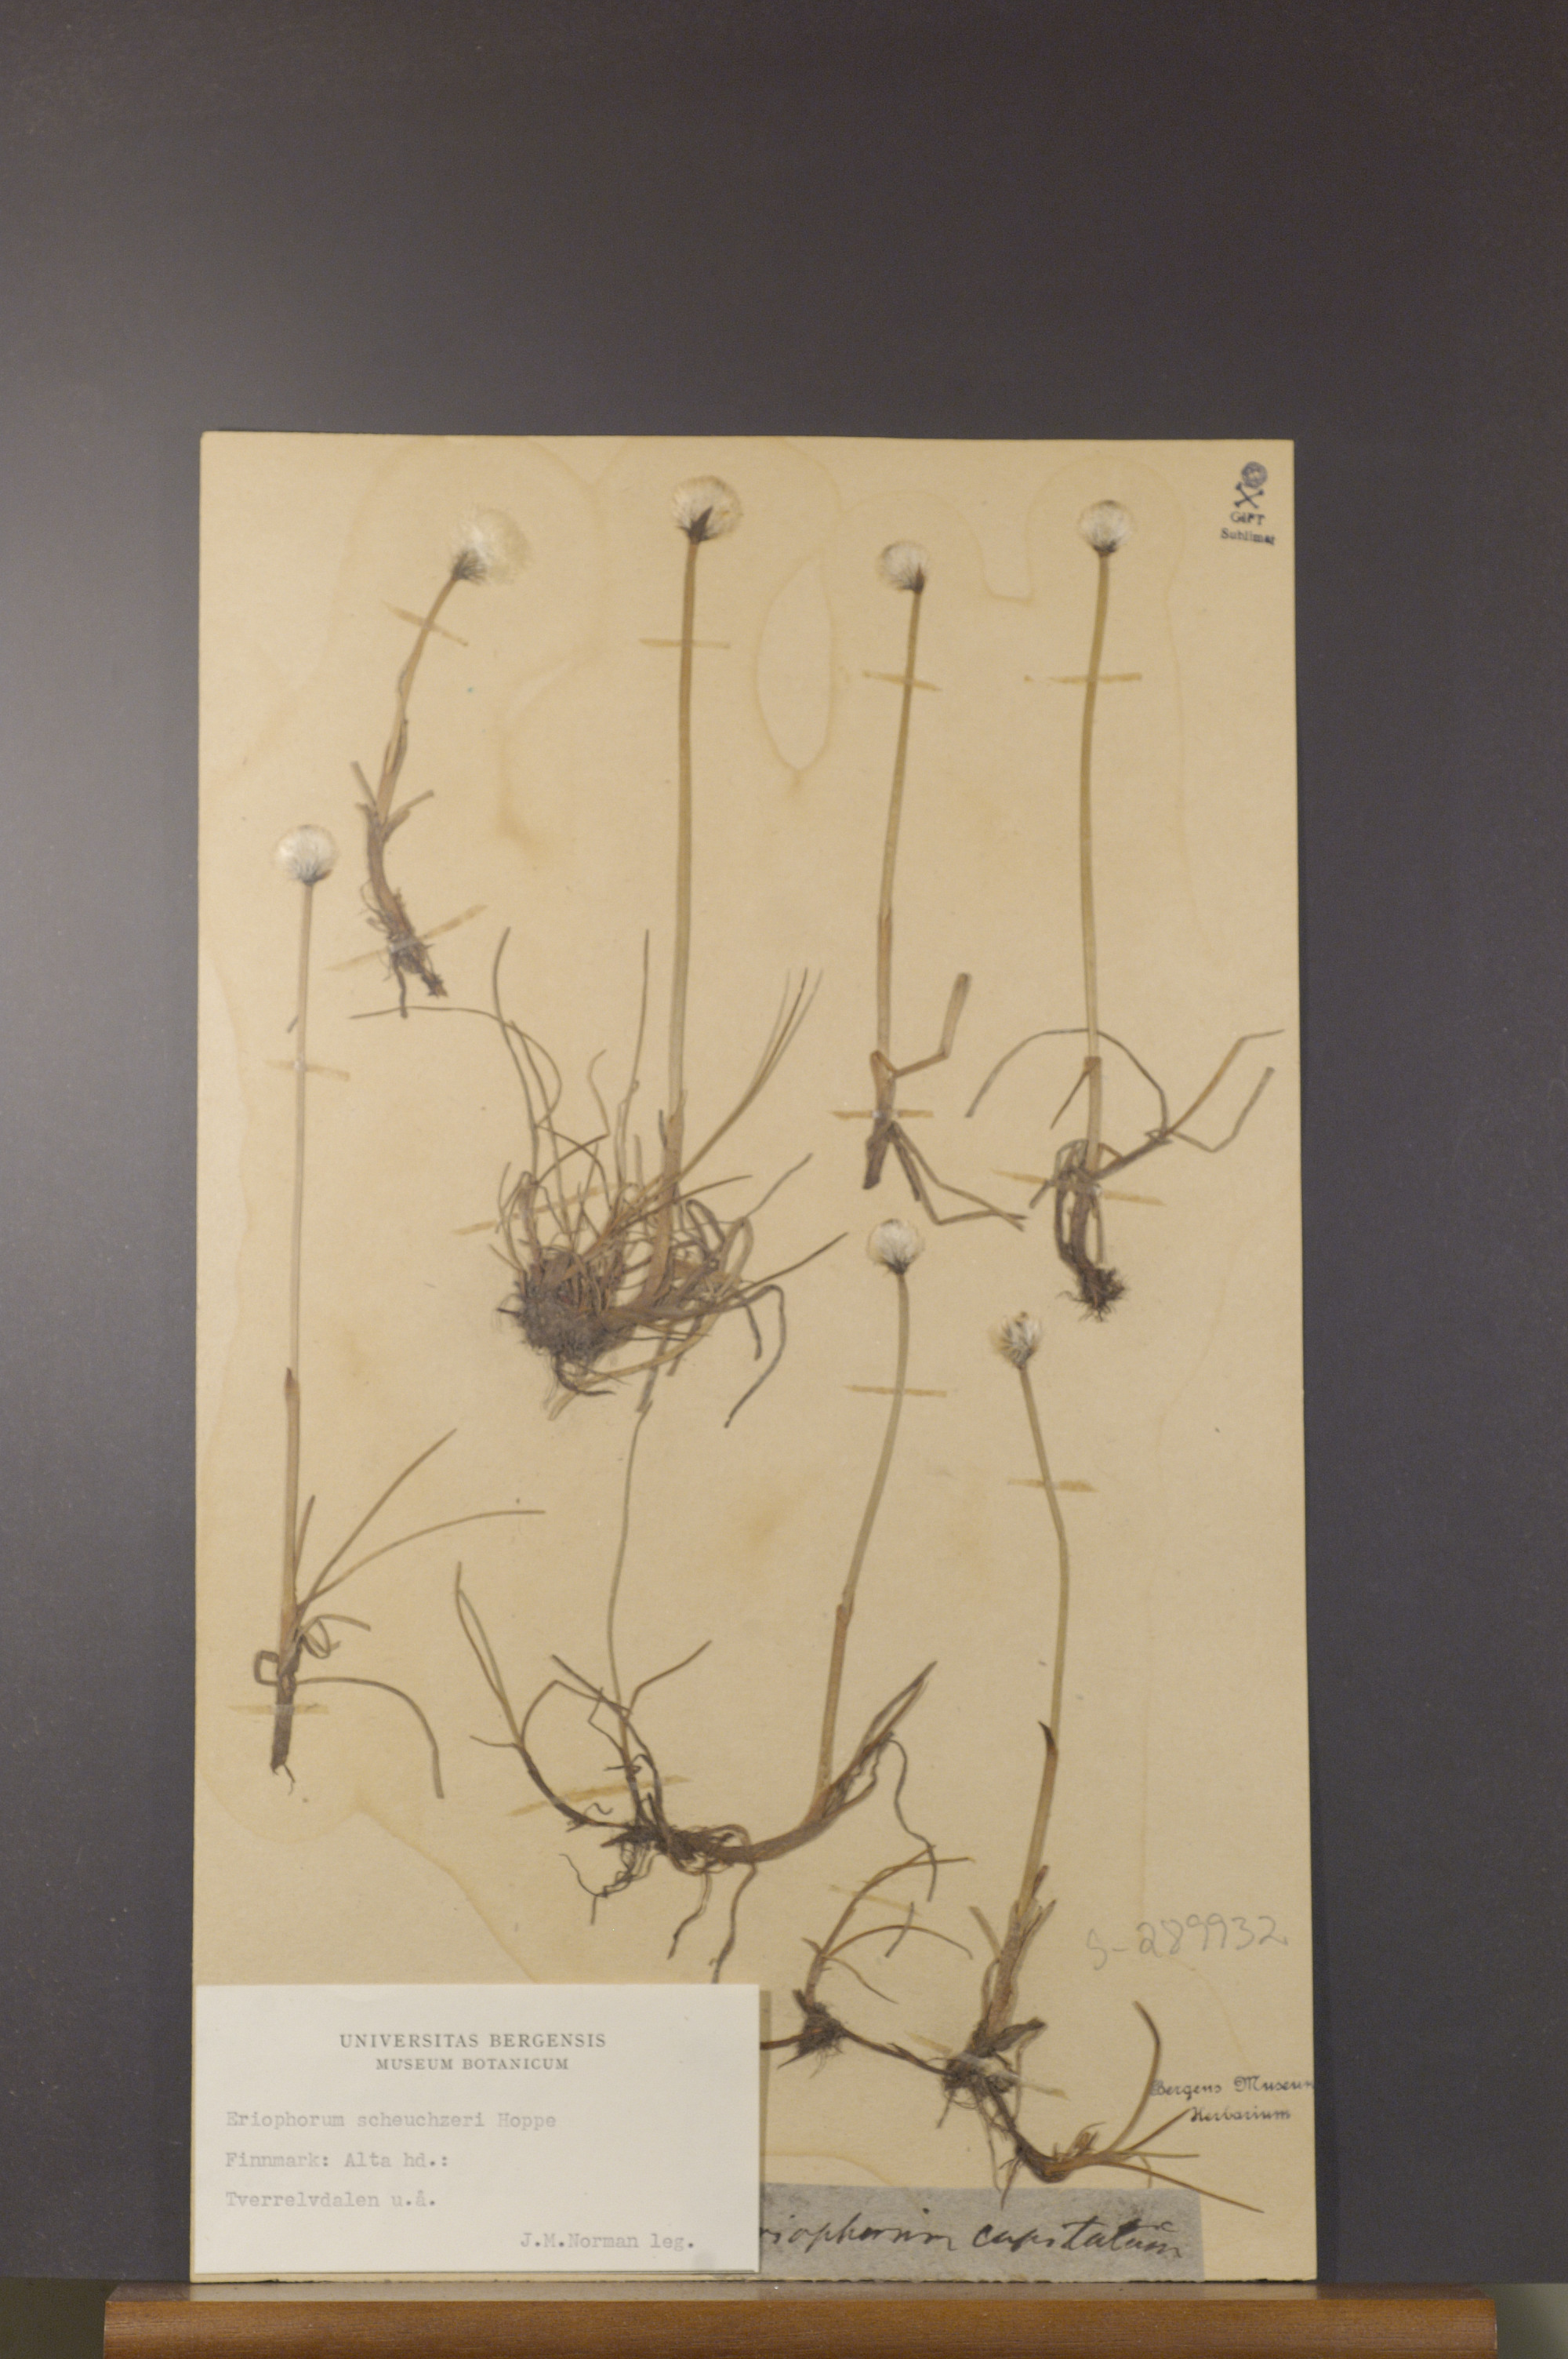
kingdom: Plantae
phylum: Tracheophyta
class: Liliopsida
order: Poales
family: Cyperaceae
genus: Eriophorum
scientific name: Eriophorum scheuchzeri
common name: Scheuchzer's cottongrass
